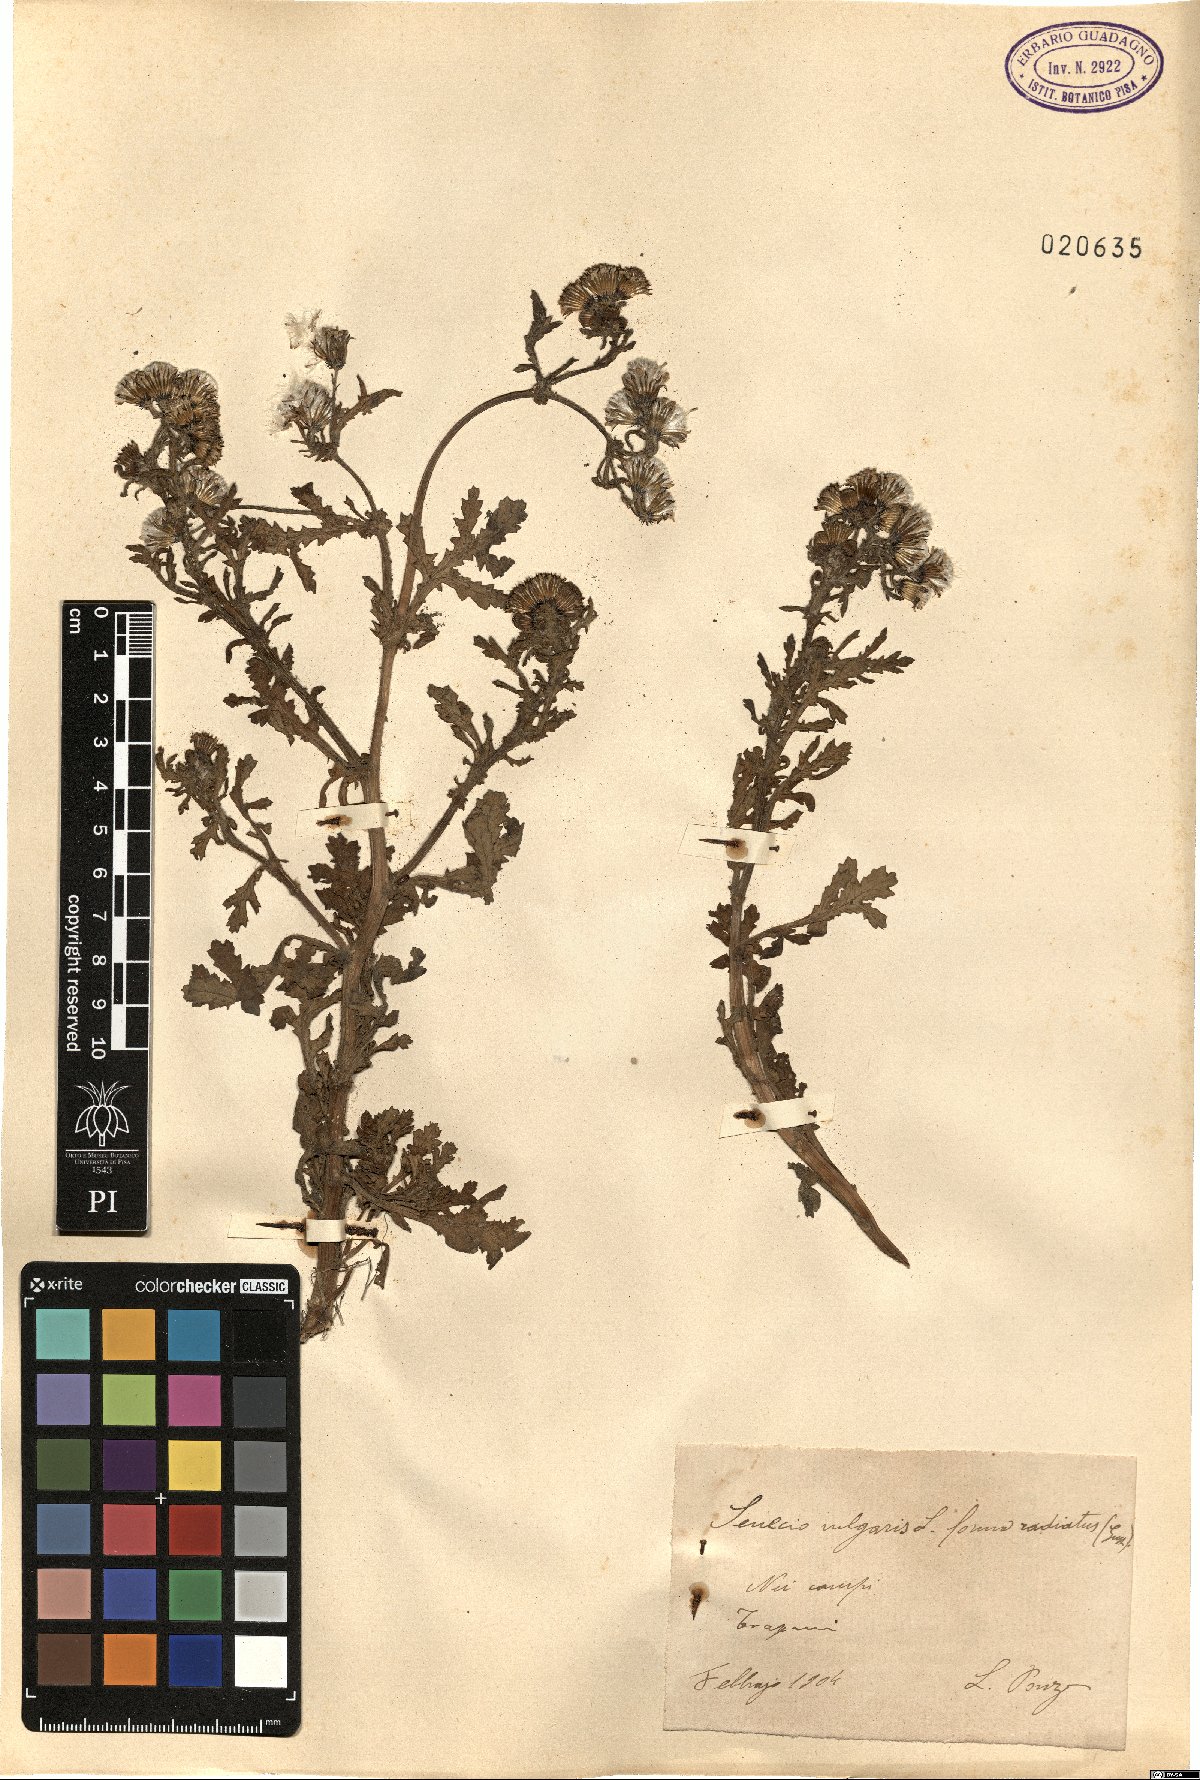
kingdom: Plantae
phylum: Tracheophyta
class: Magnoliopsida
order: Asterales
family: Asteraceae
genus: Senecio
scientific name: Senecio vulgaris
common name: Old-man-in-the-spring
